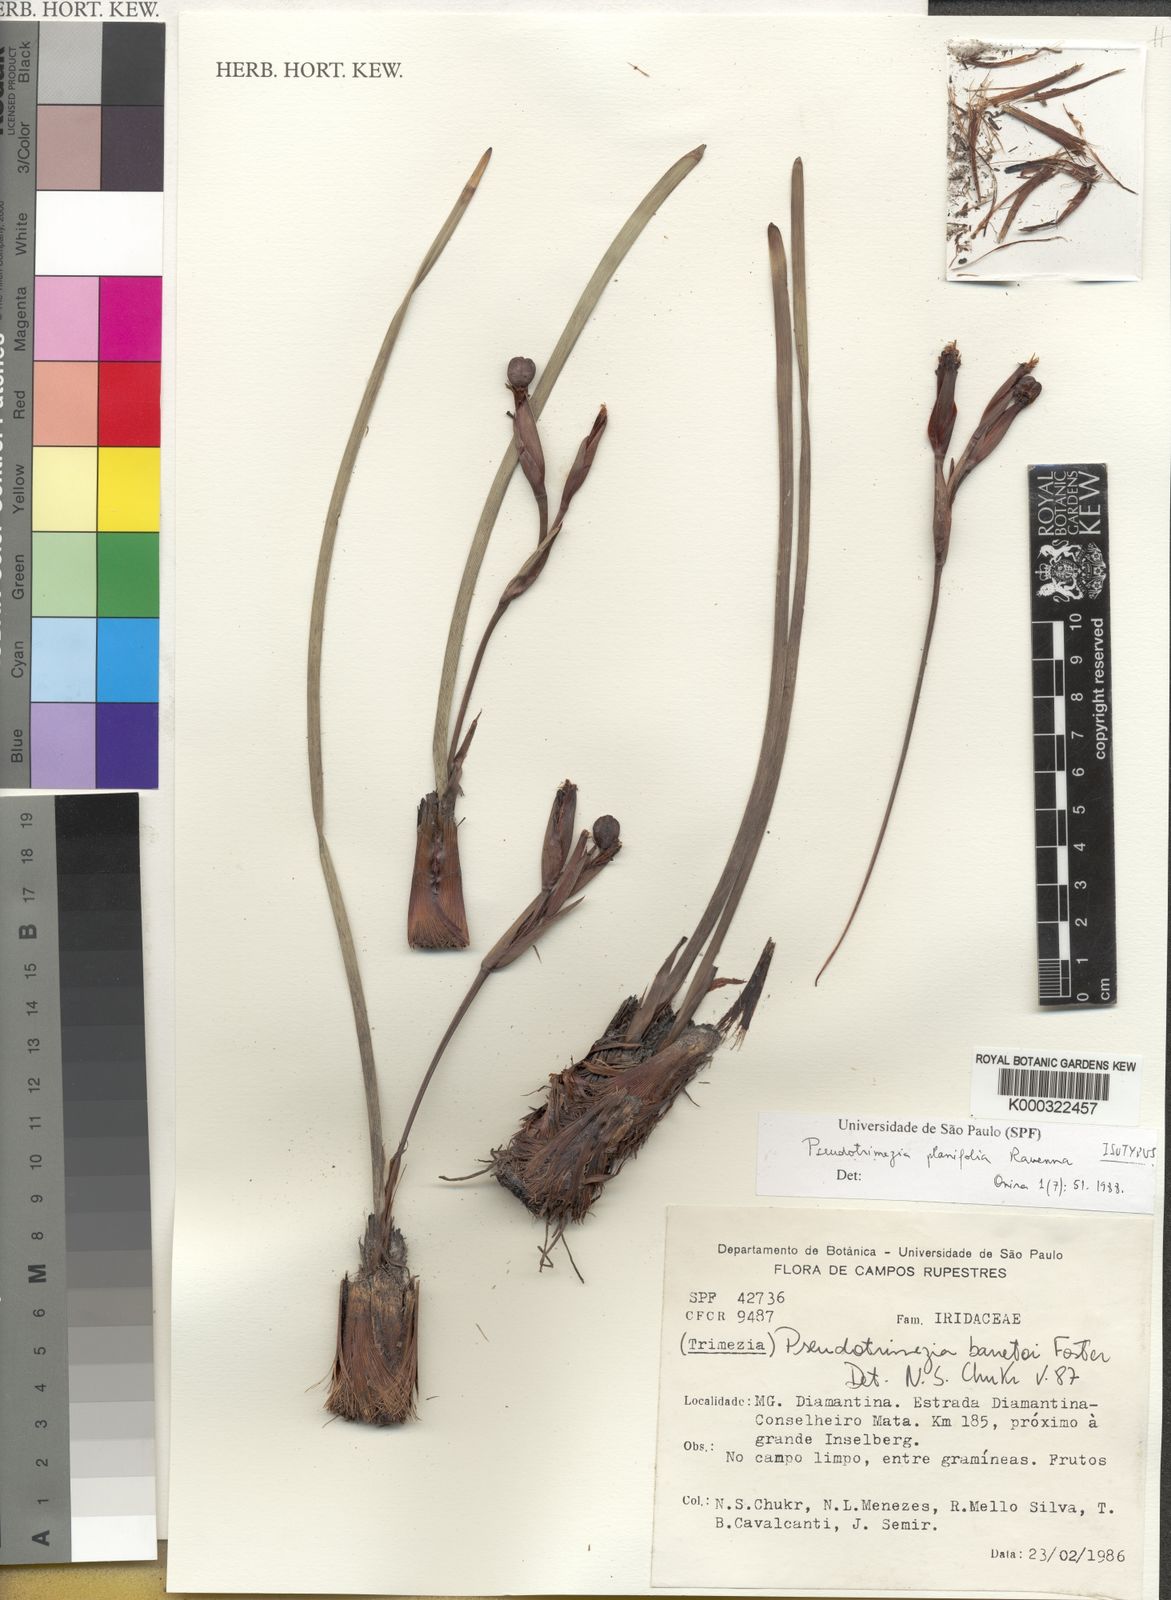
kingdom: Plantae
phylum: Tracheophyta
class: Liliopsida
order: Asparagales
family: Iridaceae
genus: Trimezia
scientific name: Trimezia xyridea
